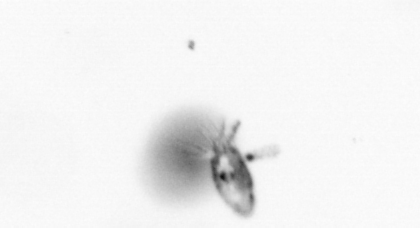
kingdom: Animalia
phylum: Arthropoda
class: Copepoda
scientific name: Copepoda
